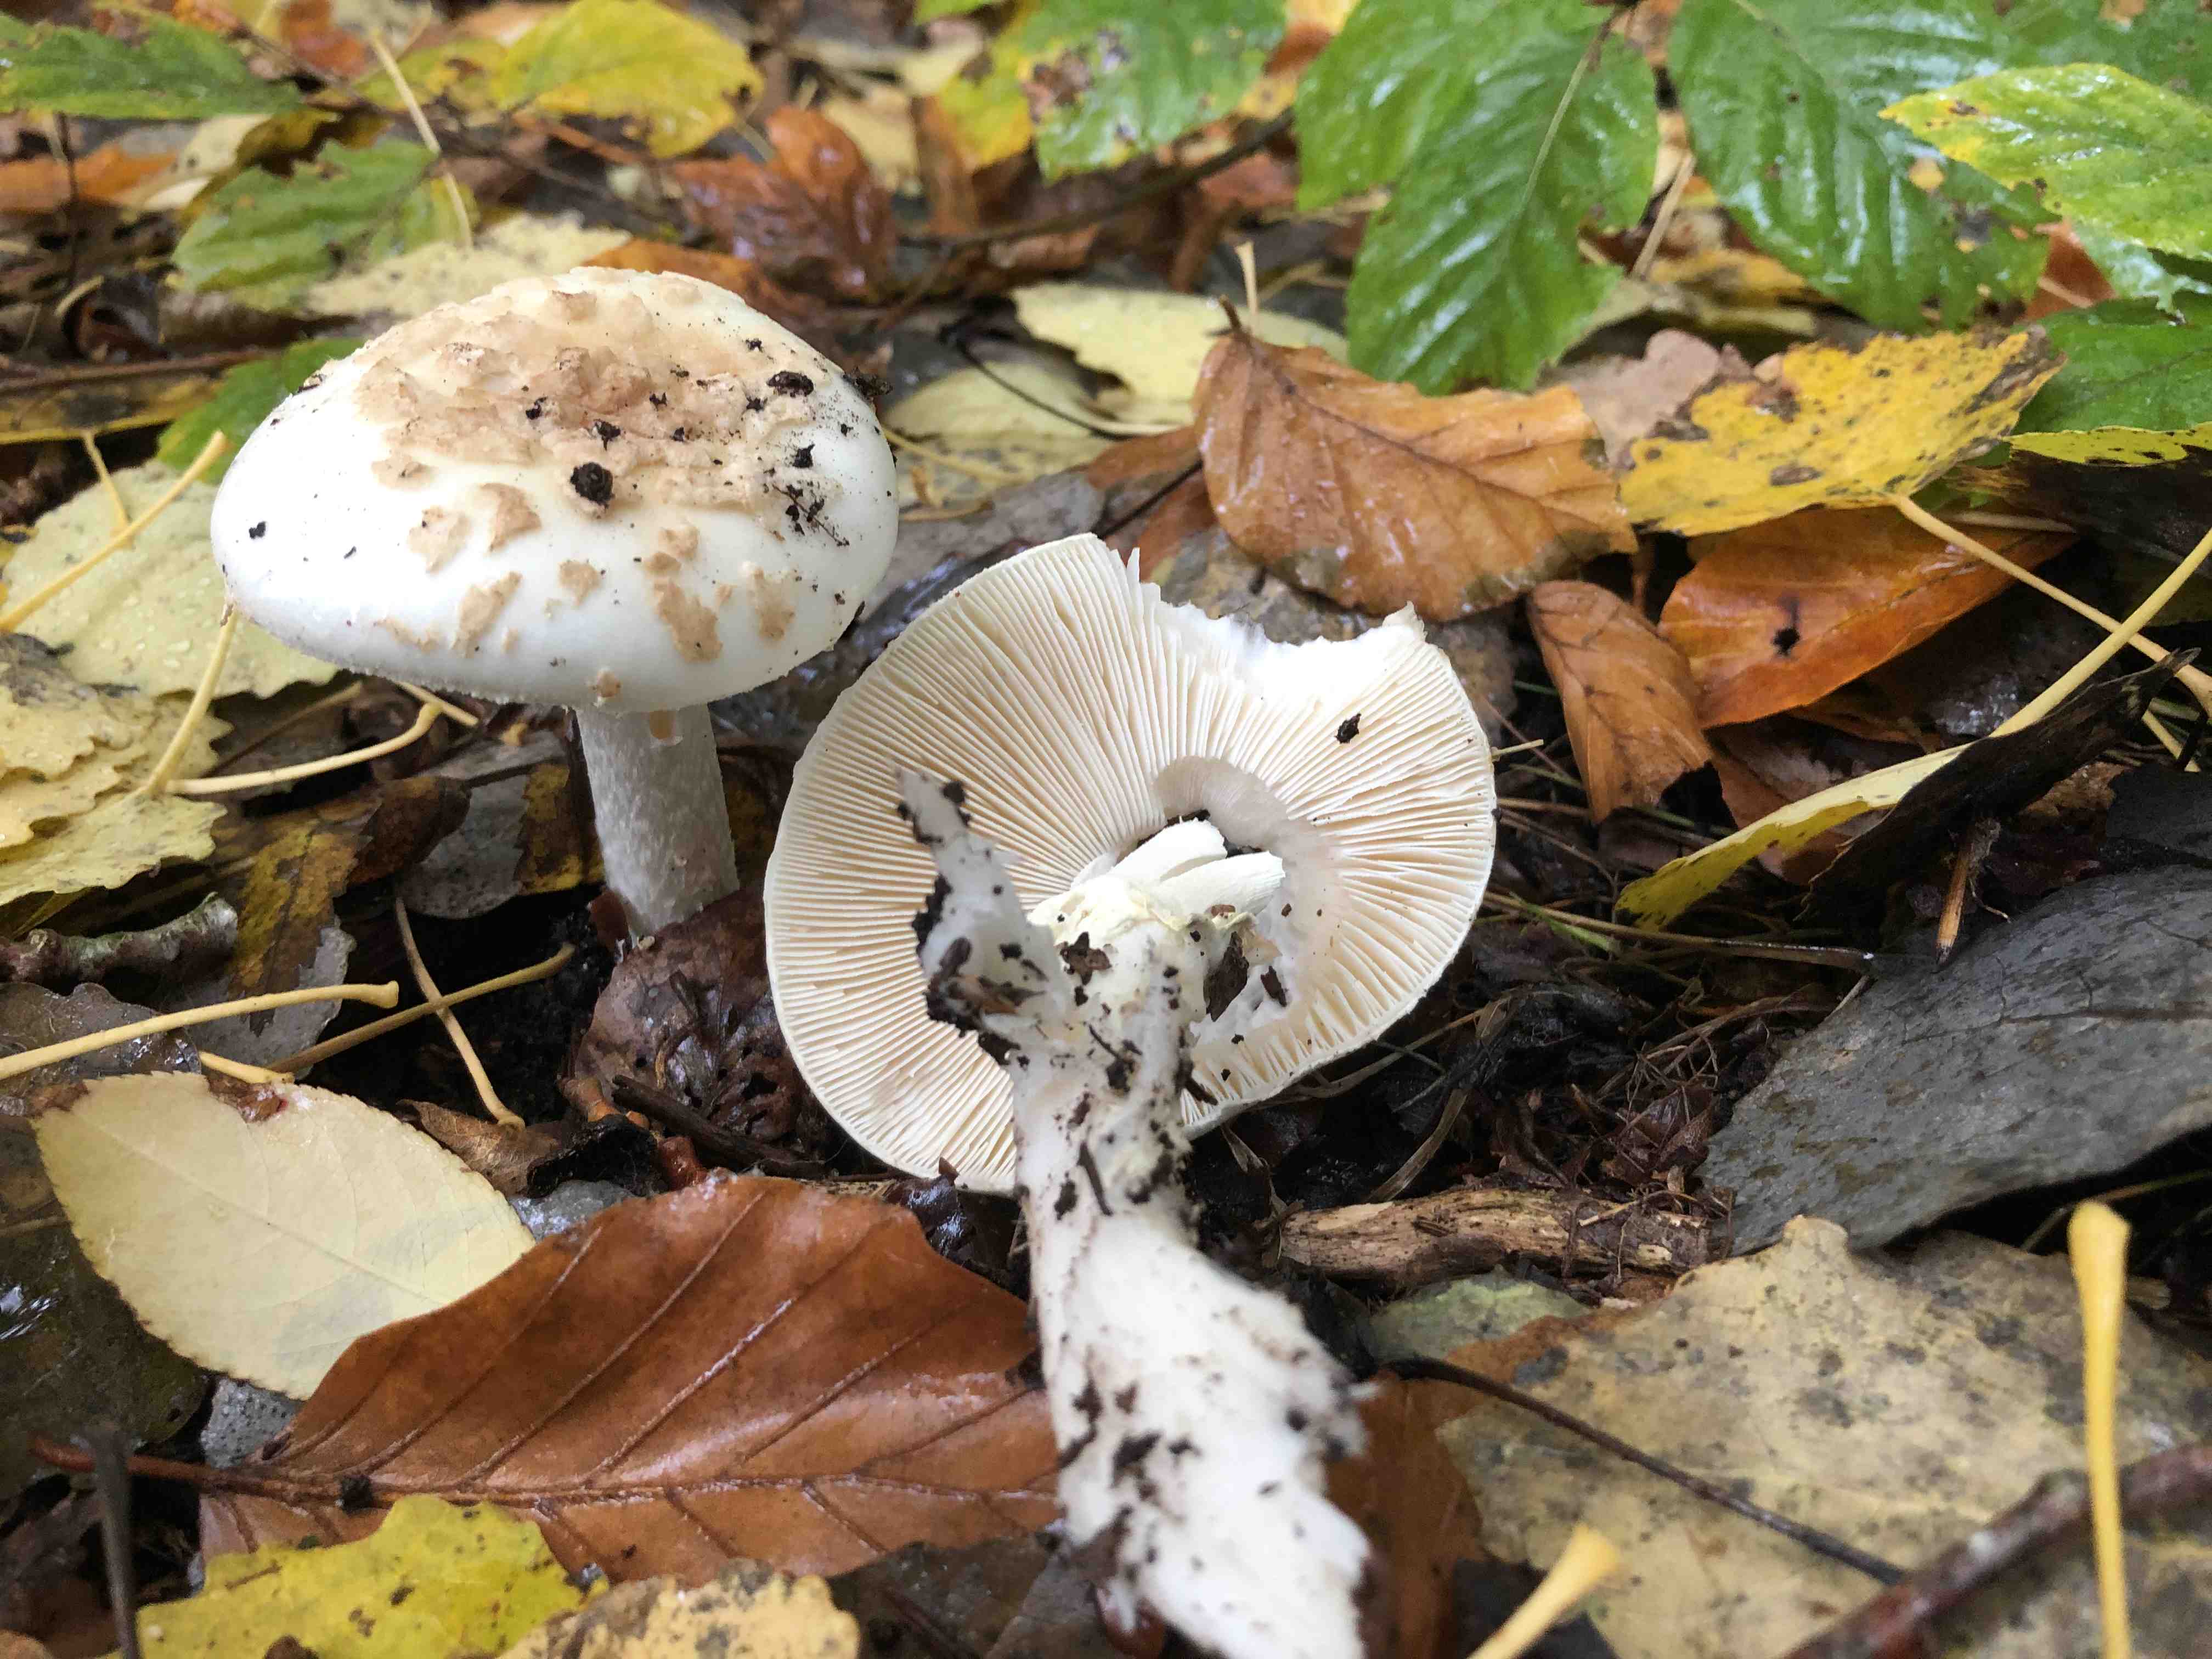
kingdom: Fungi
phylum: Basidiomycota
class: Agaricomycetes
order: Agaricales
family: Amanitaceae
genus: Amanita
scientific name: Amanita citrina
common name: kugleknoldet fluesvamp
